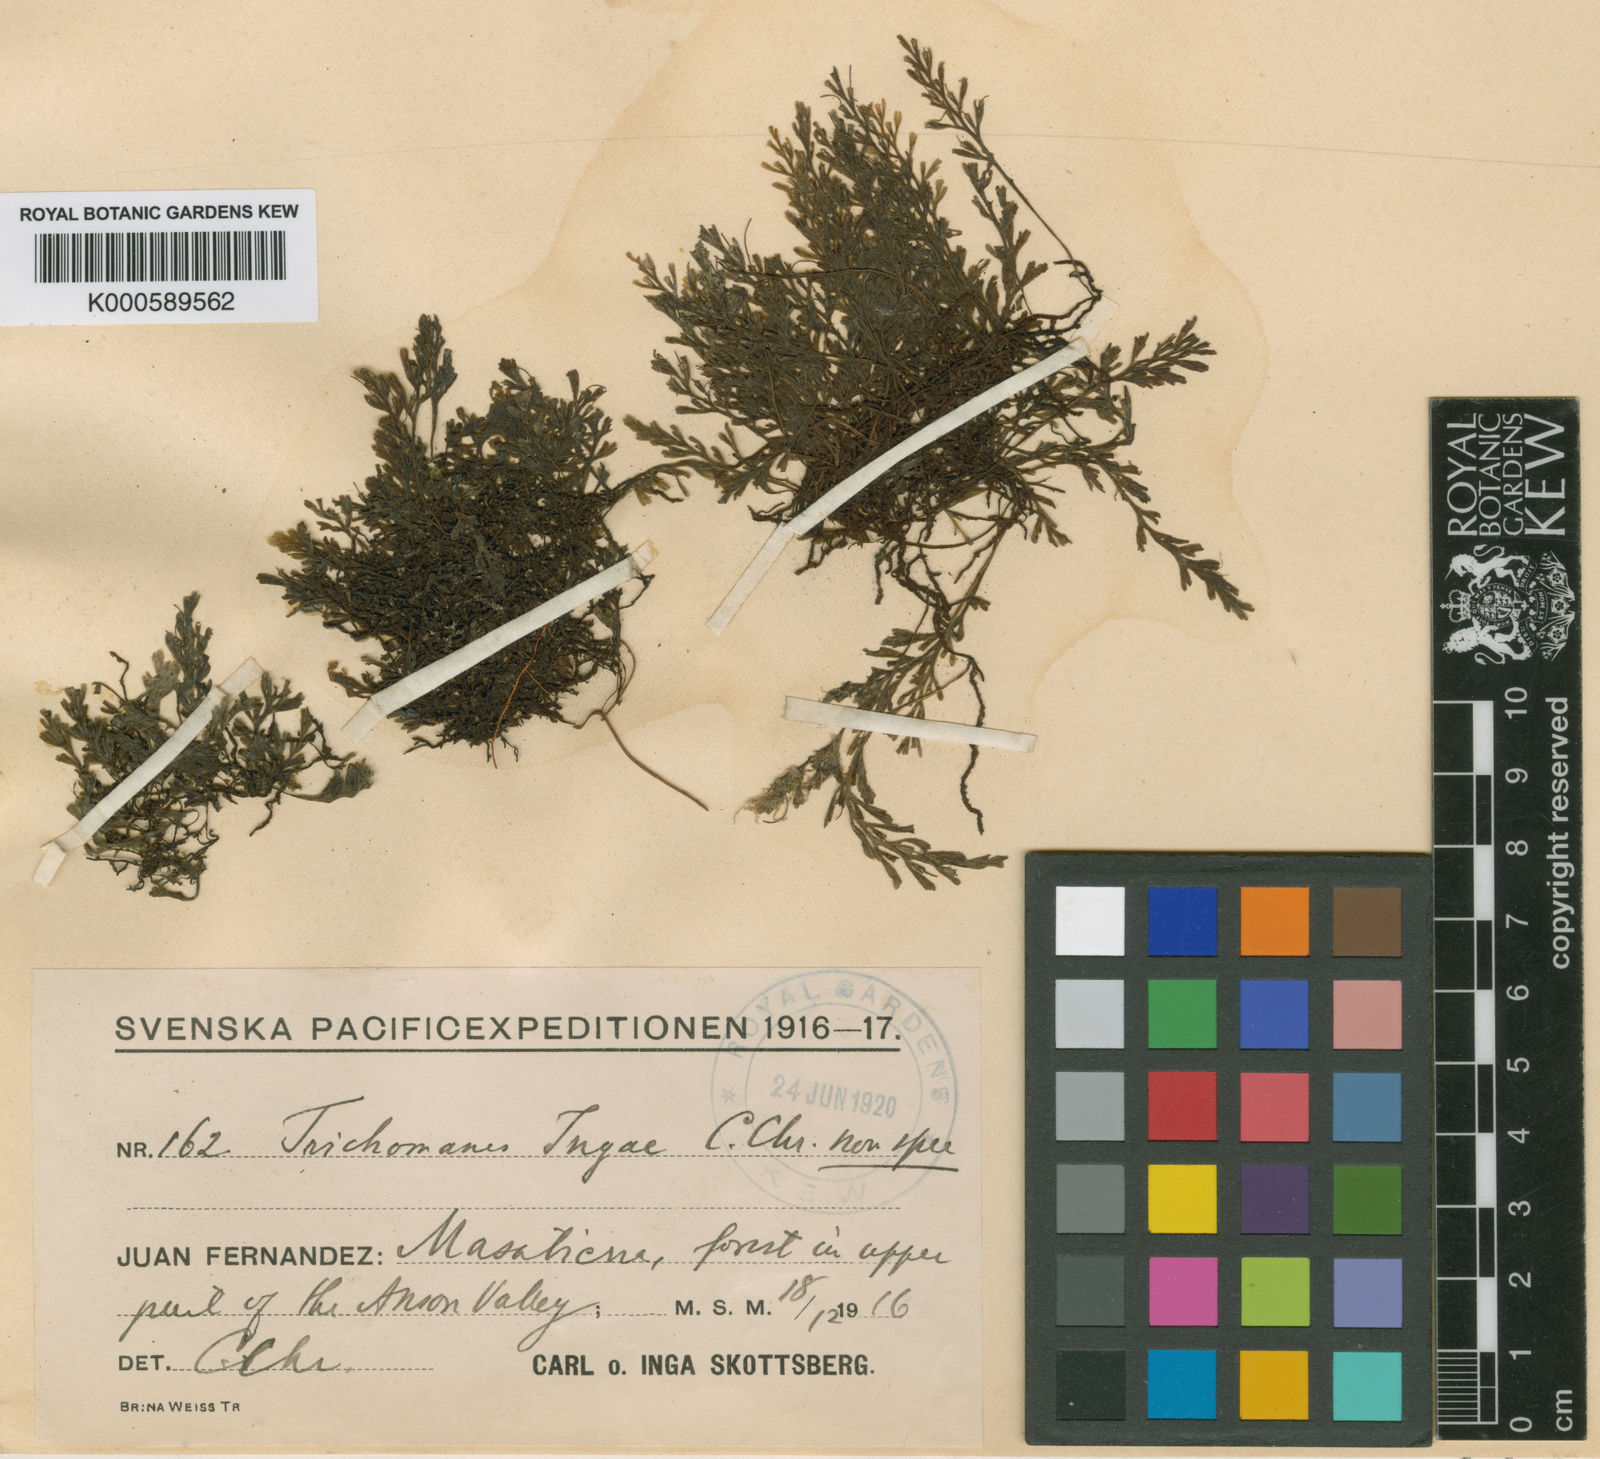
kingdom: Plantae
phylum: Tracheophyta
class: Polypodiopsida
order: Hymenophyllales
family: Hymenophyllaceae
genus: Polyphlebium
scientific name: Polyphlebium ingae
